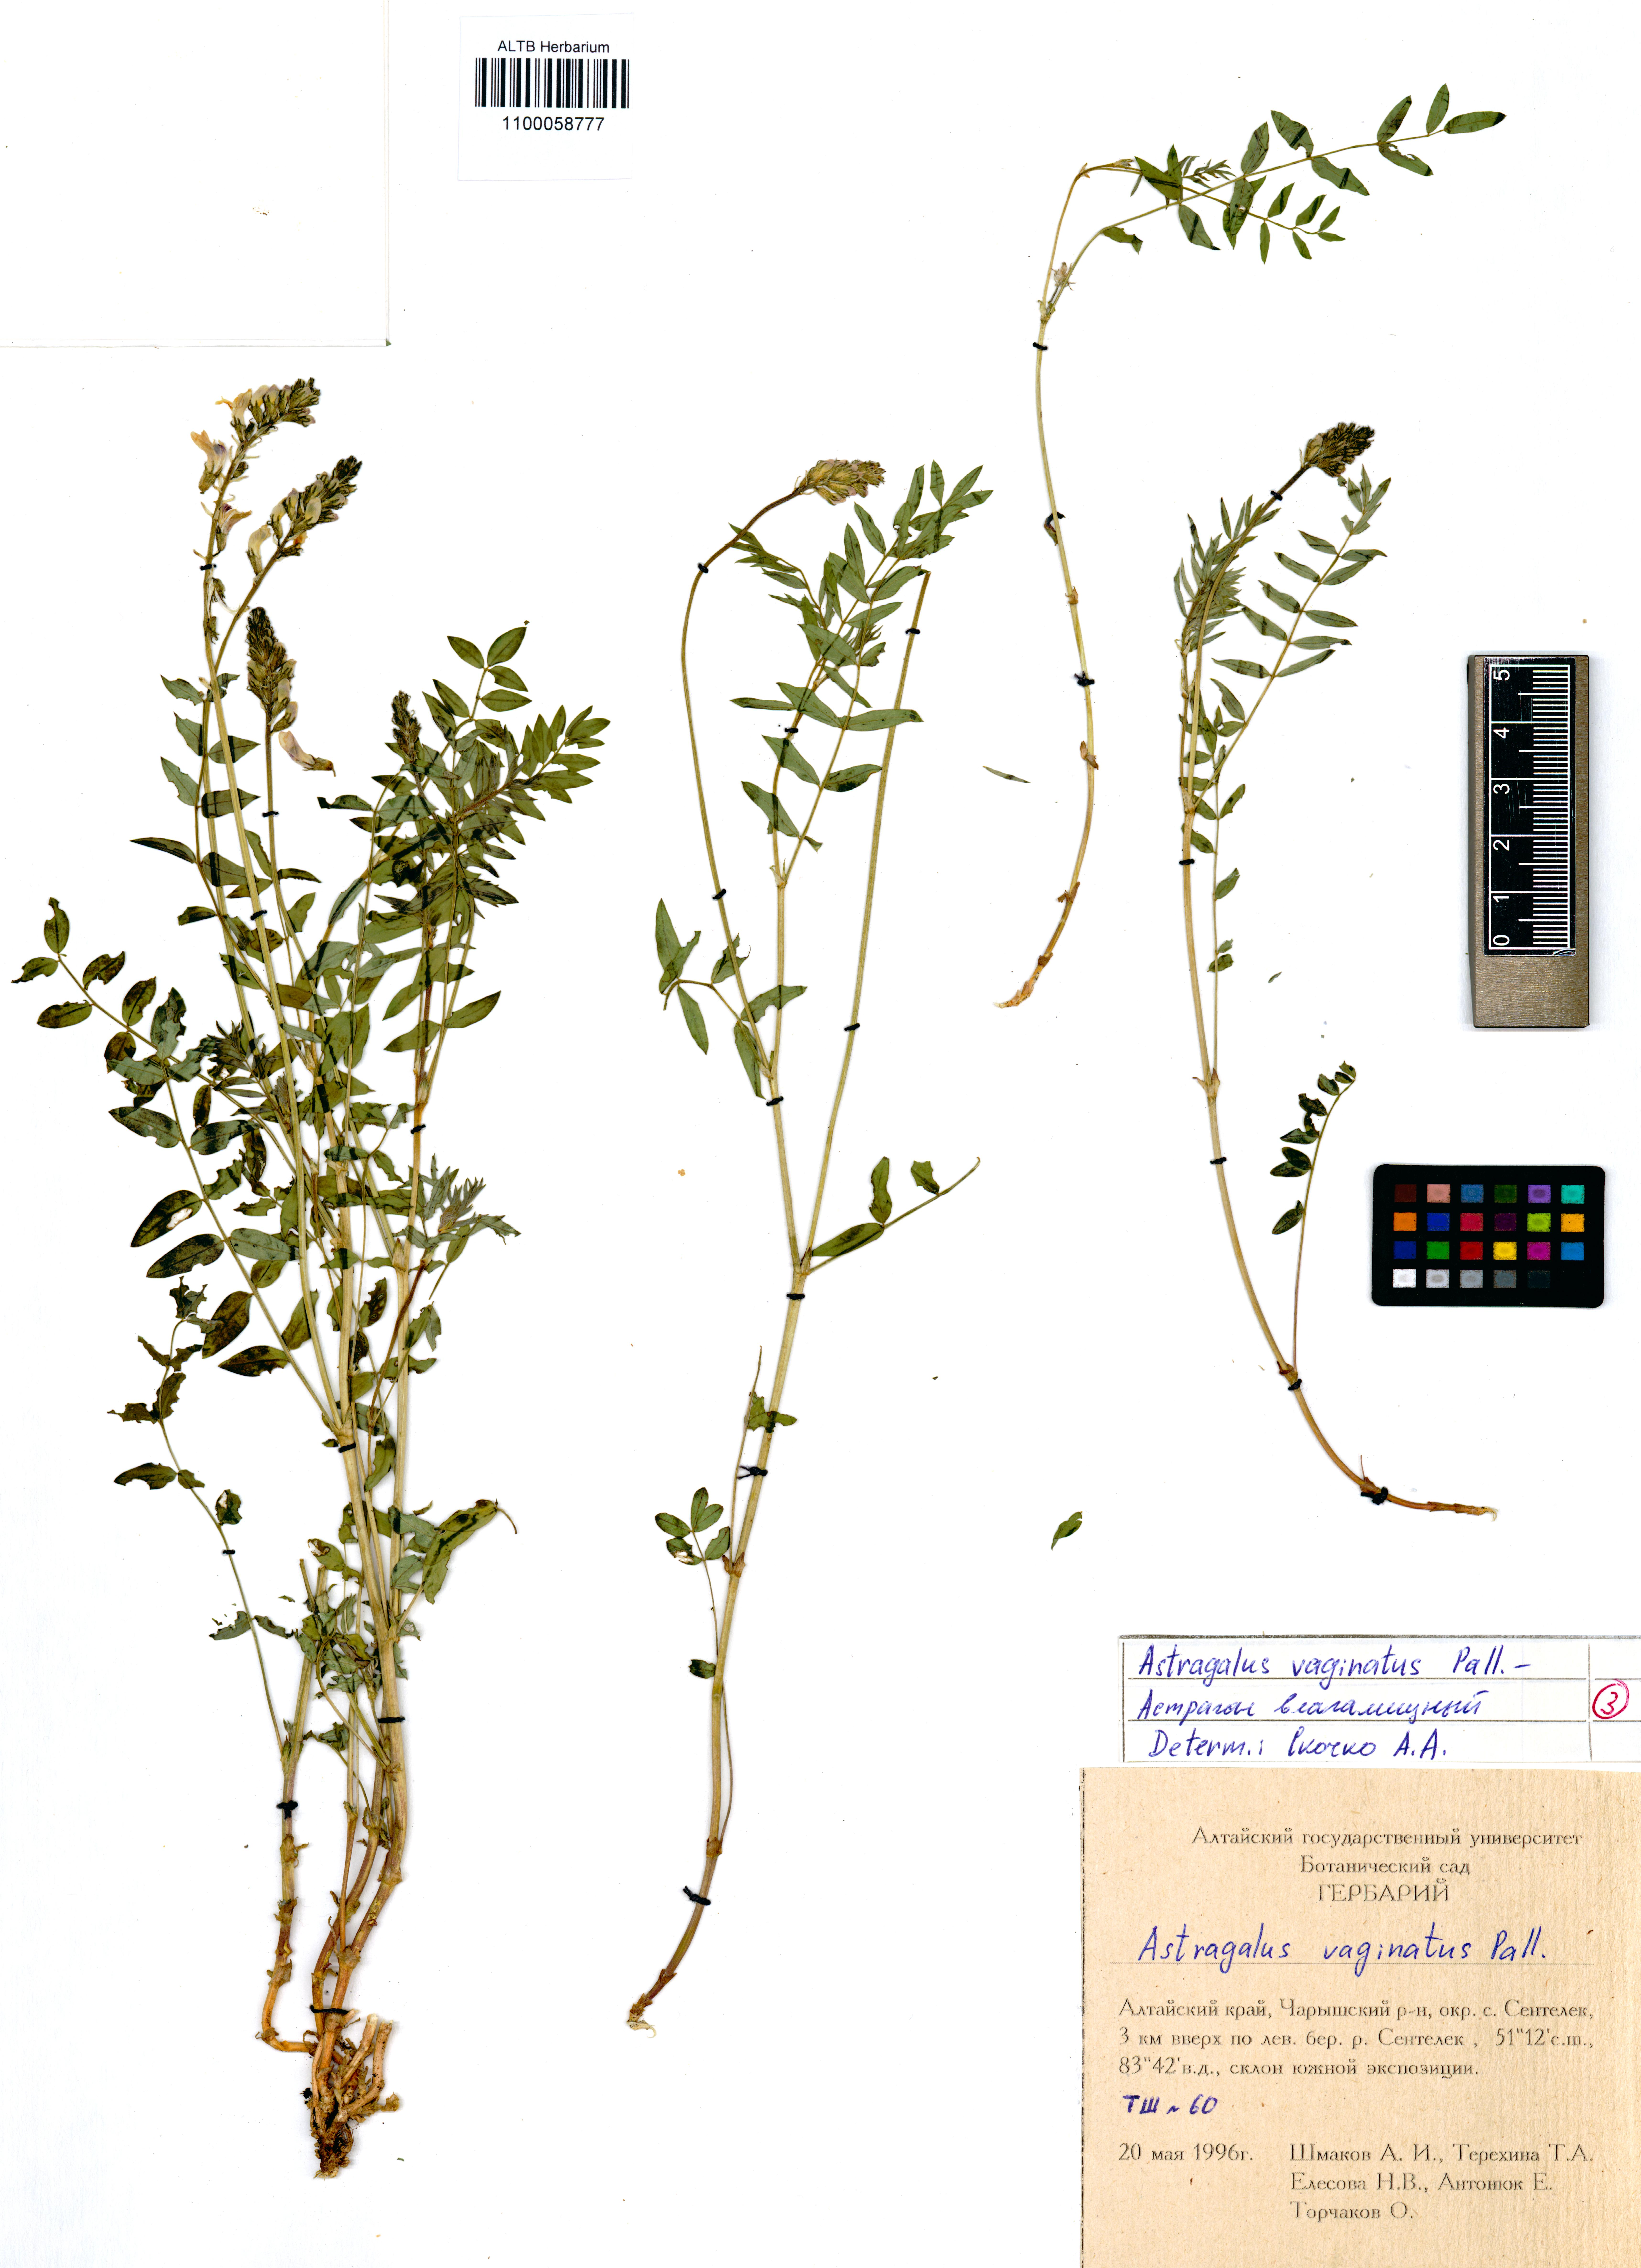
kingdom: Plantae
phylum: Tracheophyta
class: Magnoliopsida
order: Fabales
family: Fabaceae
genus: Astragalus
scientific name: Astragalus vaginatus
